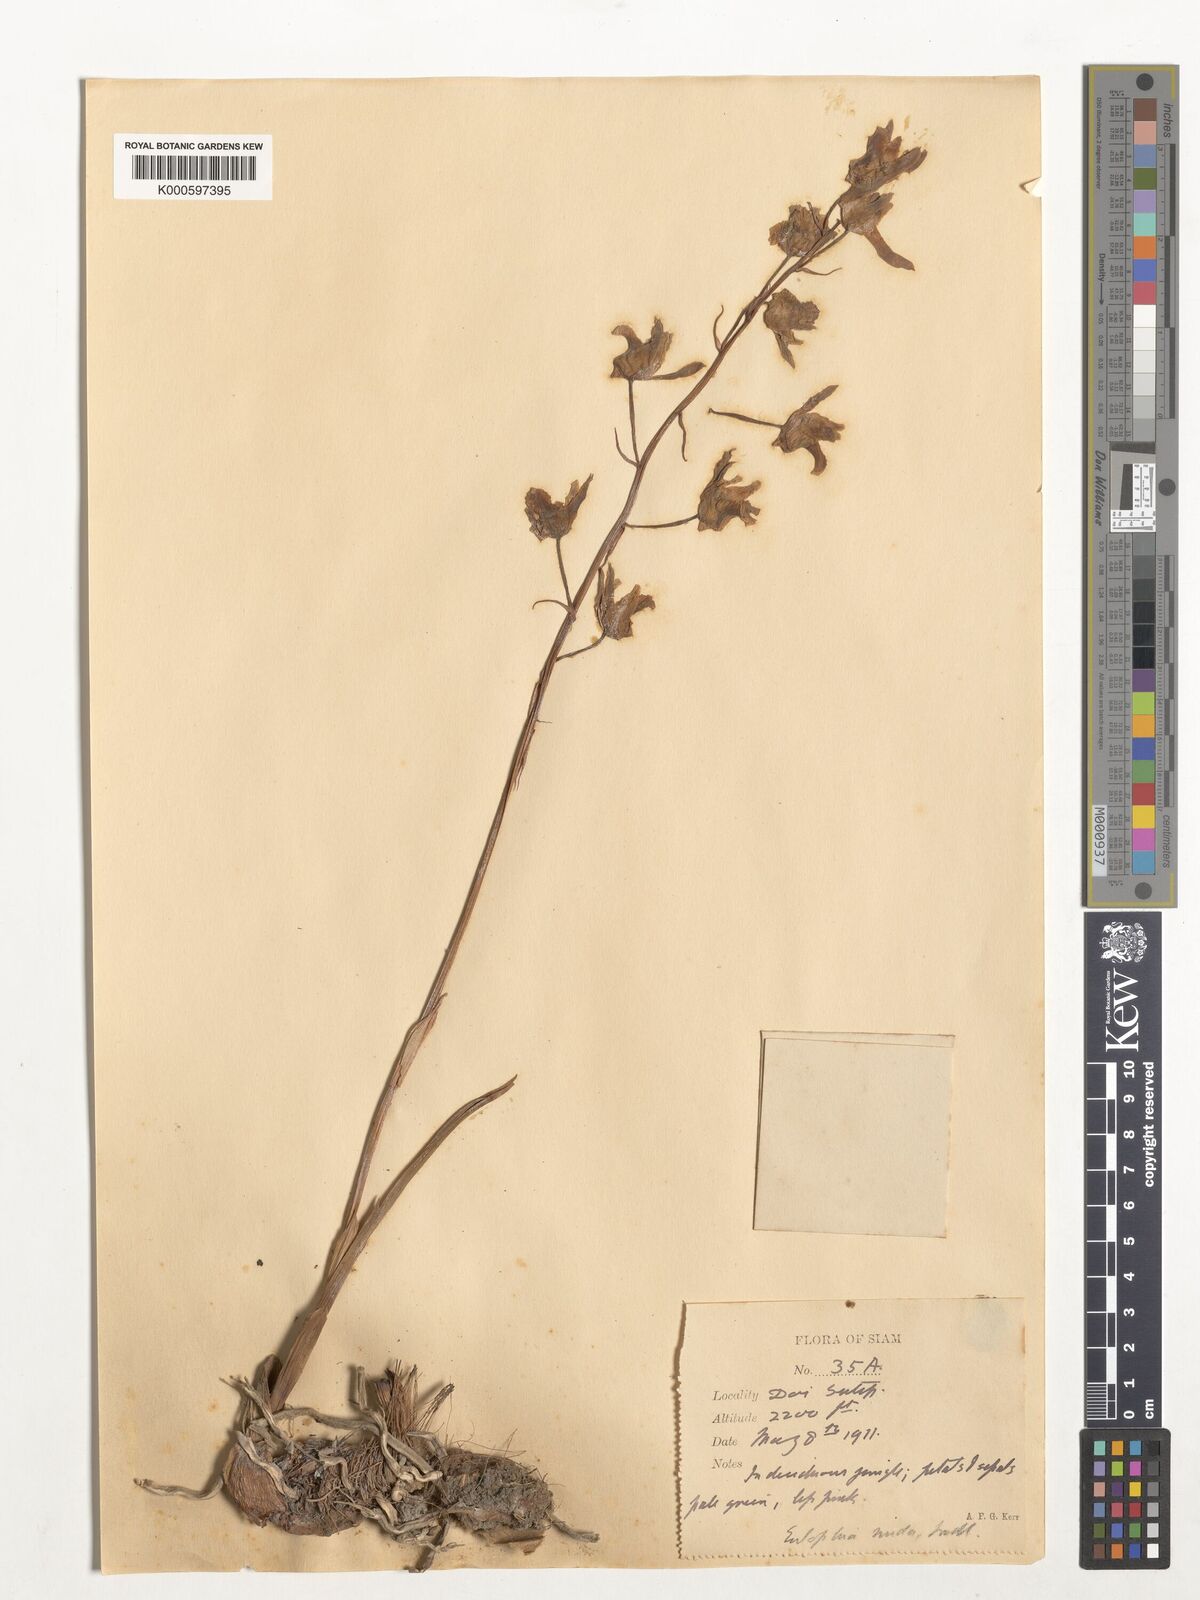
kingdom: Plantae
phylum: Tracheophyta
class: Liliopsida
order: Asparagales
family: Orchidaceae
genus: Eulophia
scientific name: Eulophia nuda
